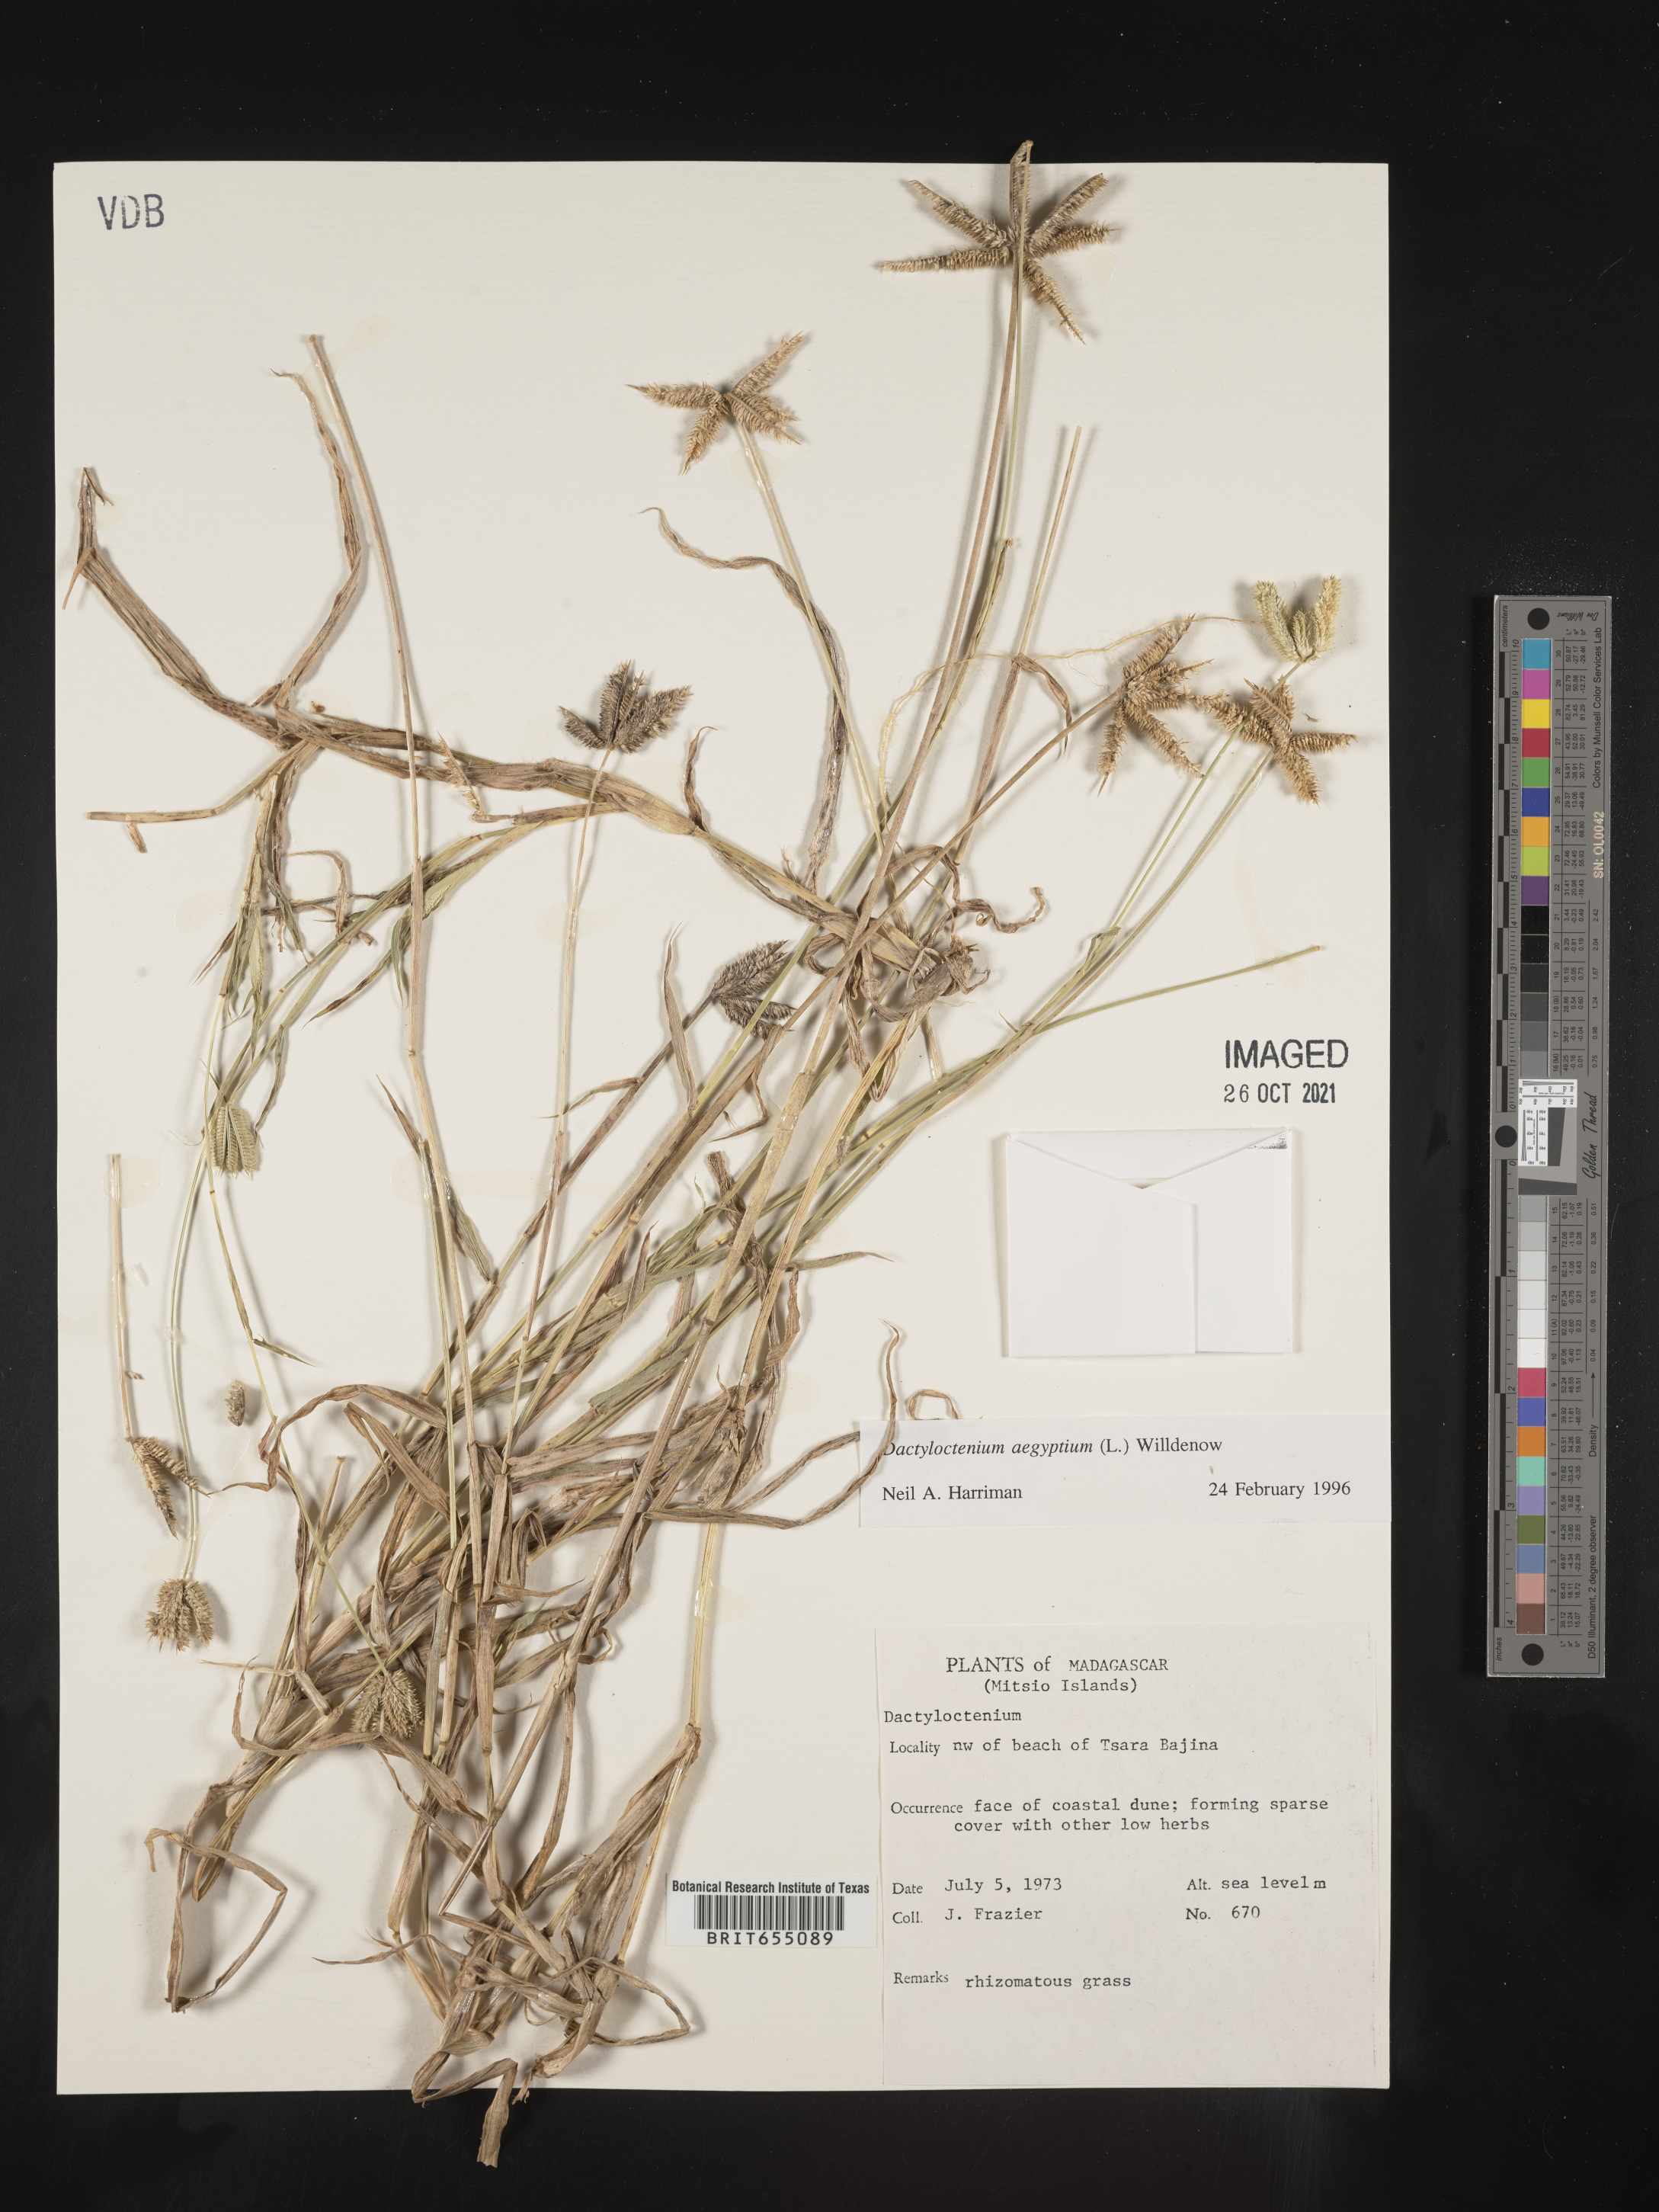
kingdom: Plantae
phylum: Tracheophyta
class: Liliopsida
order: Poales
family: Poaceae
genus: Dactyloctenium
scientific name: Dactyloctenium
